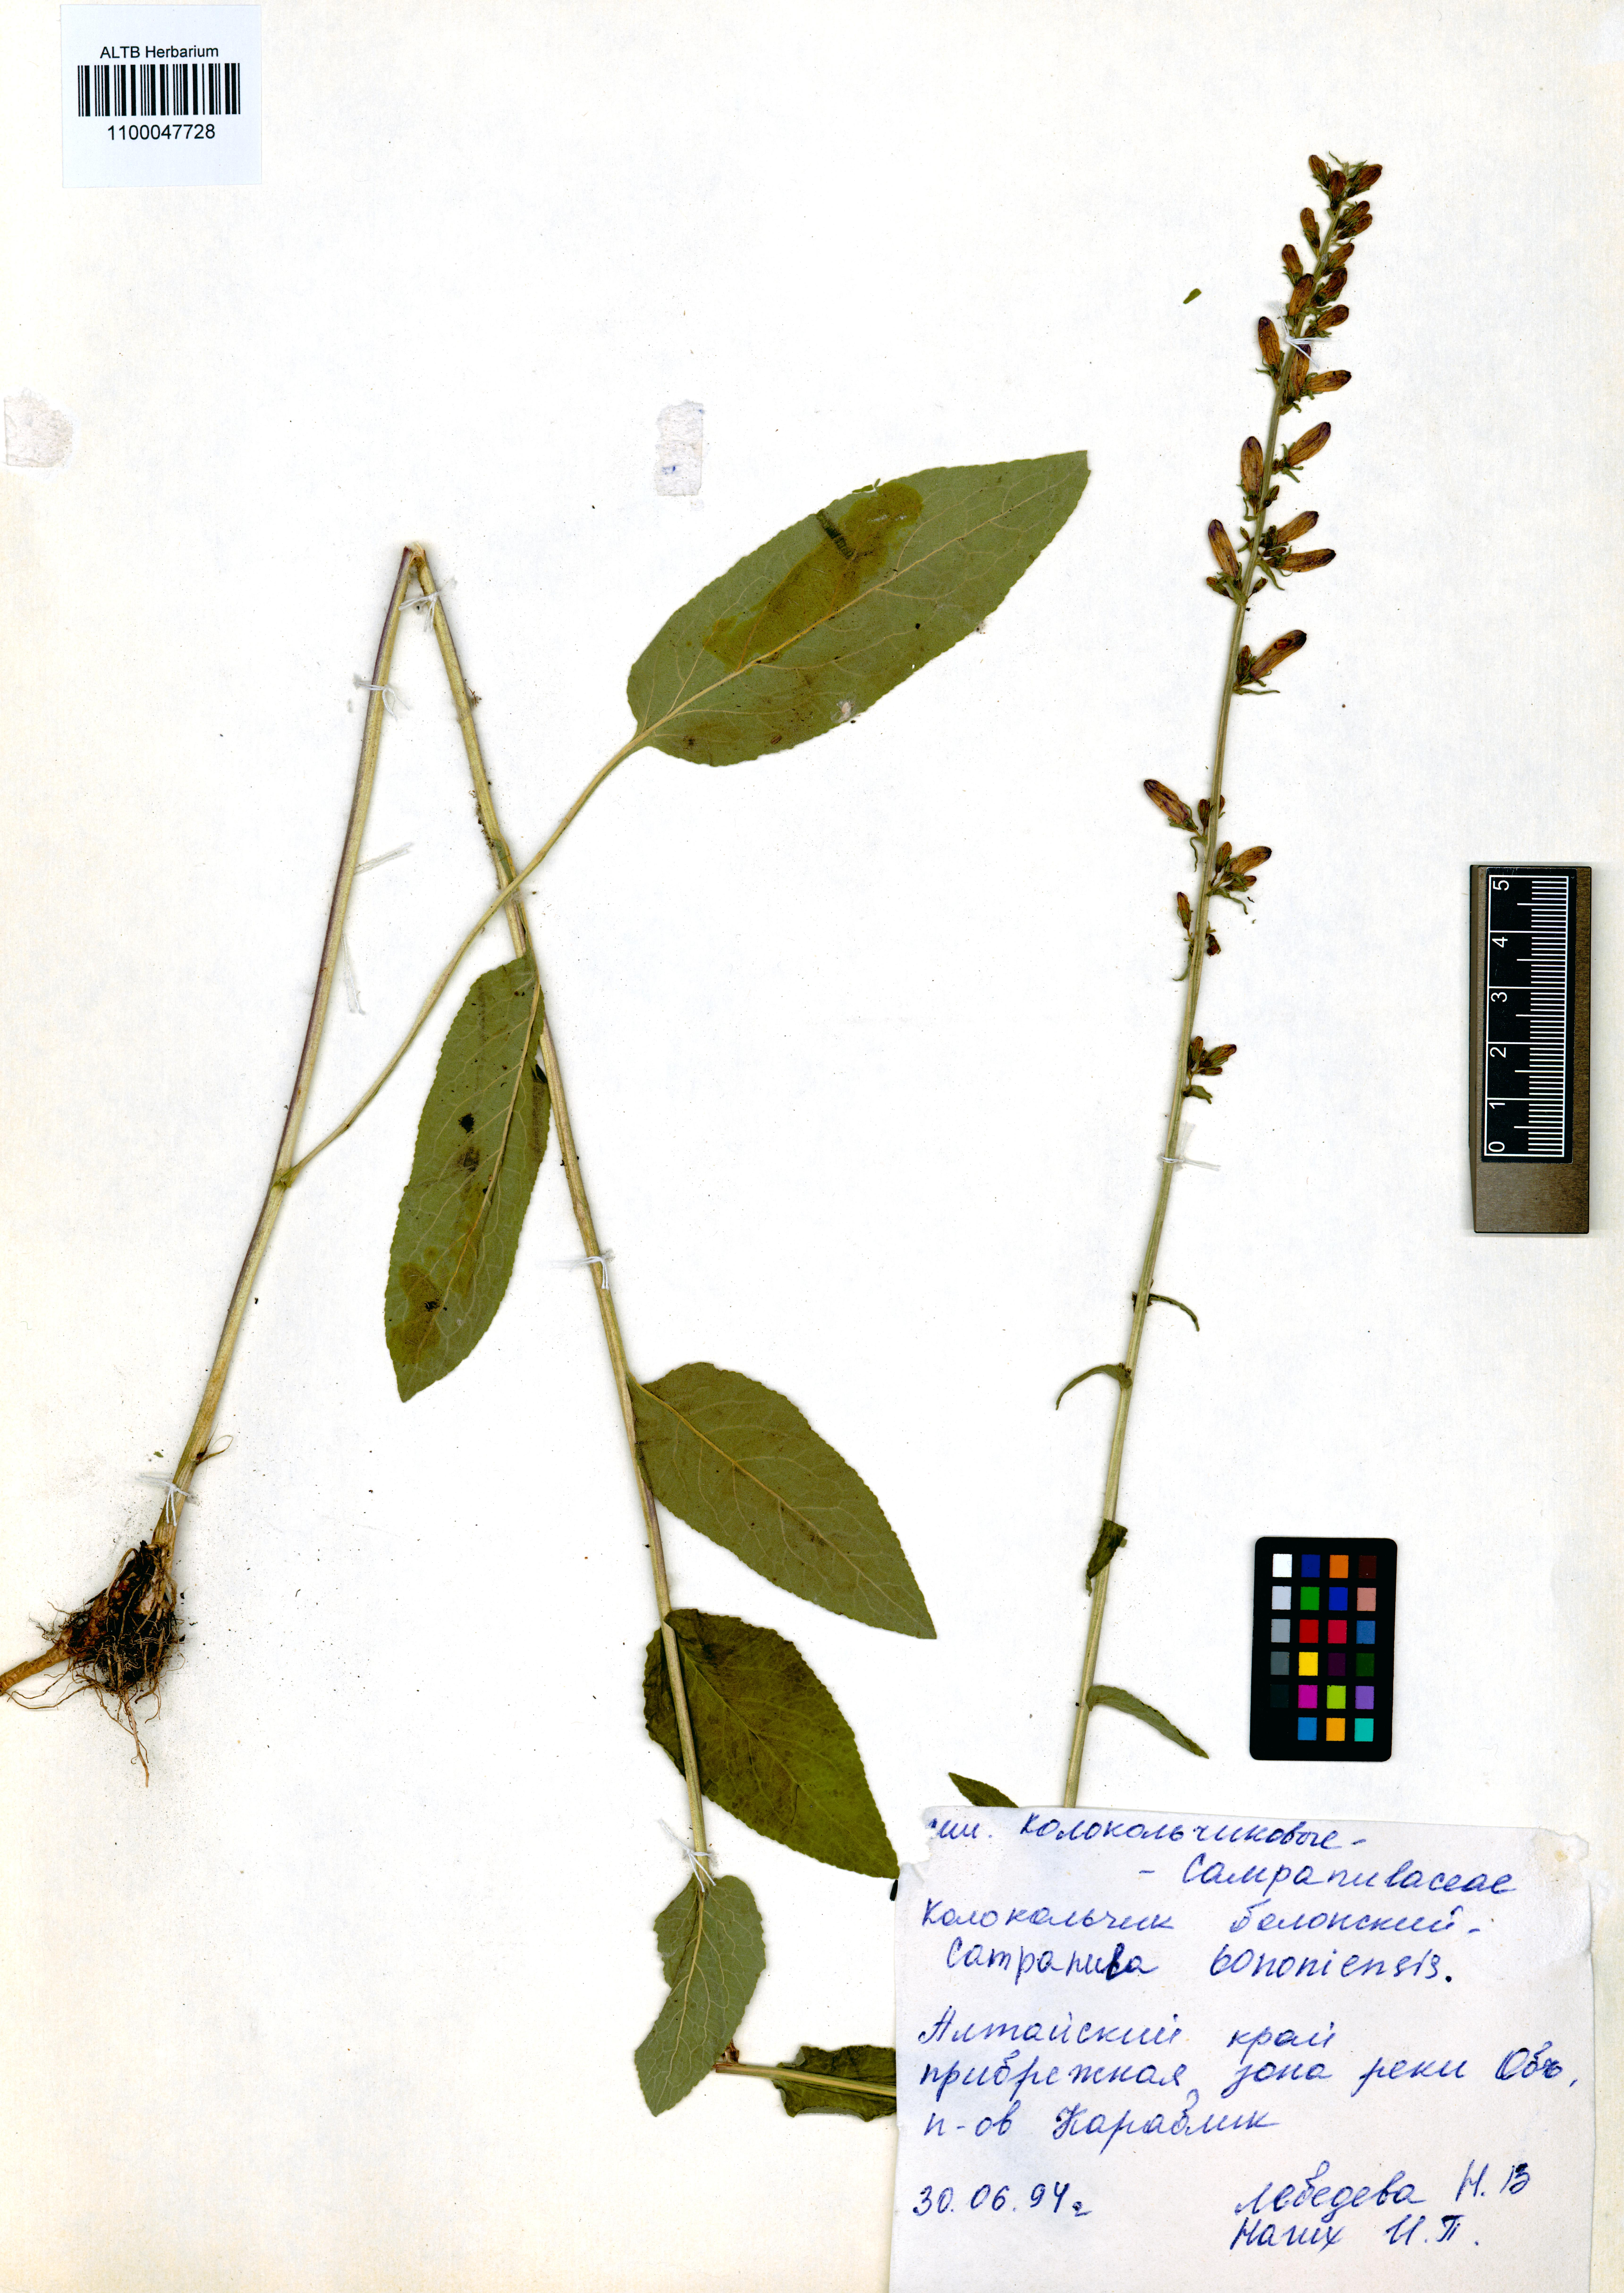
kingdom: Plantae
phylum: Tracheophyta
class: Magnoliopsida
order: Asterales
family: Campanulaceae
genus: Campanula
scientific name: Campanula bononiensis
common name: Pale bellflower
